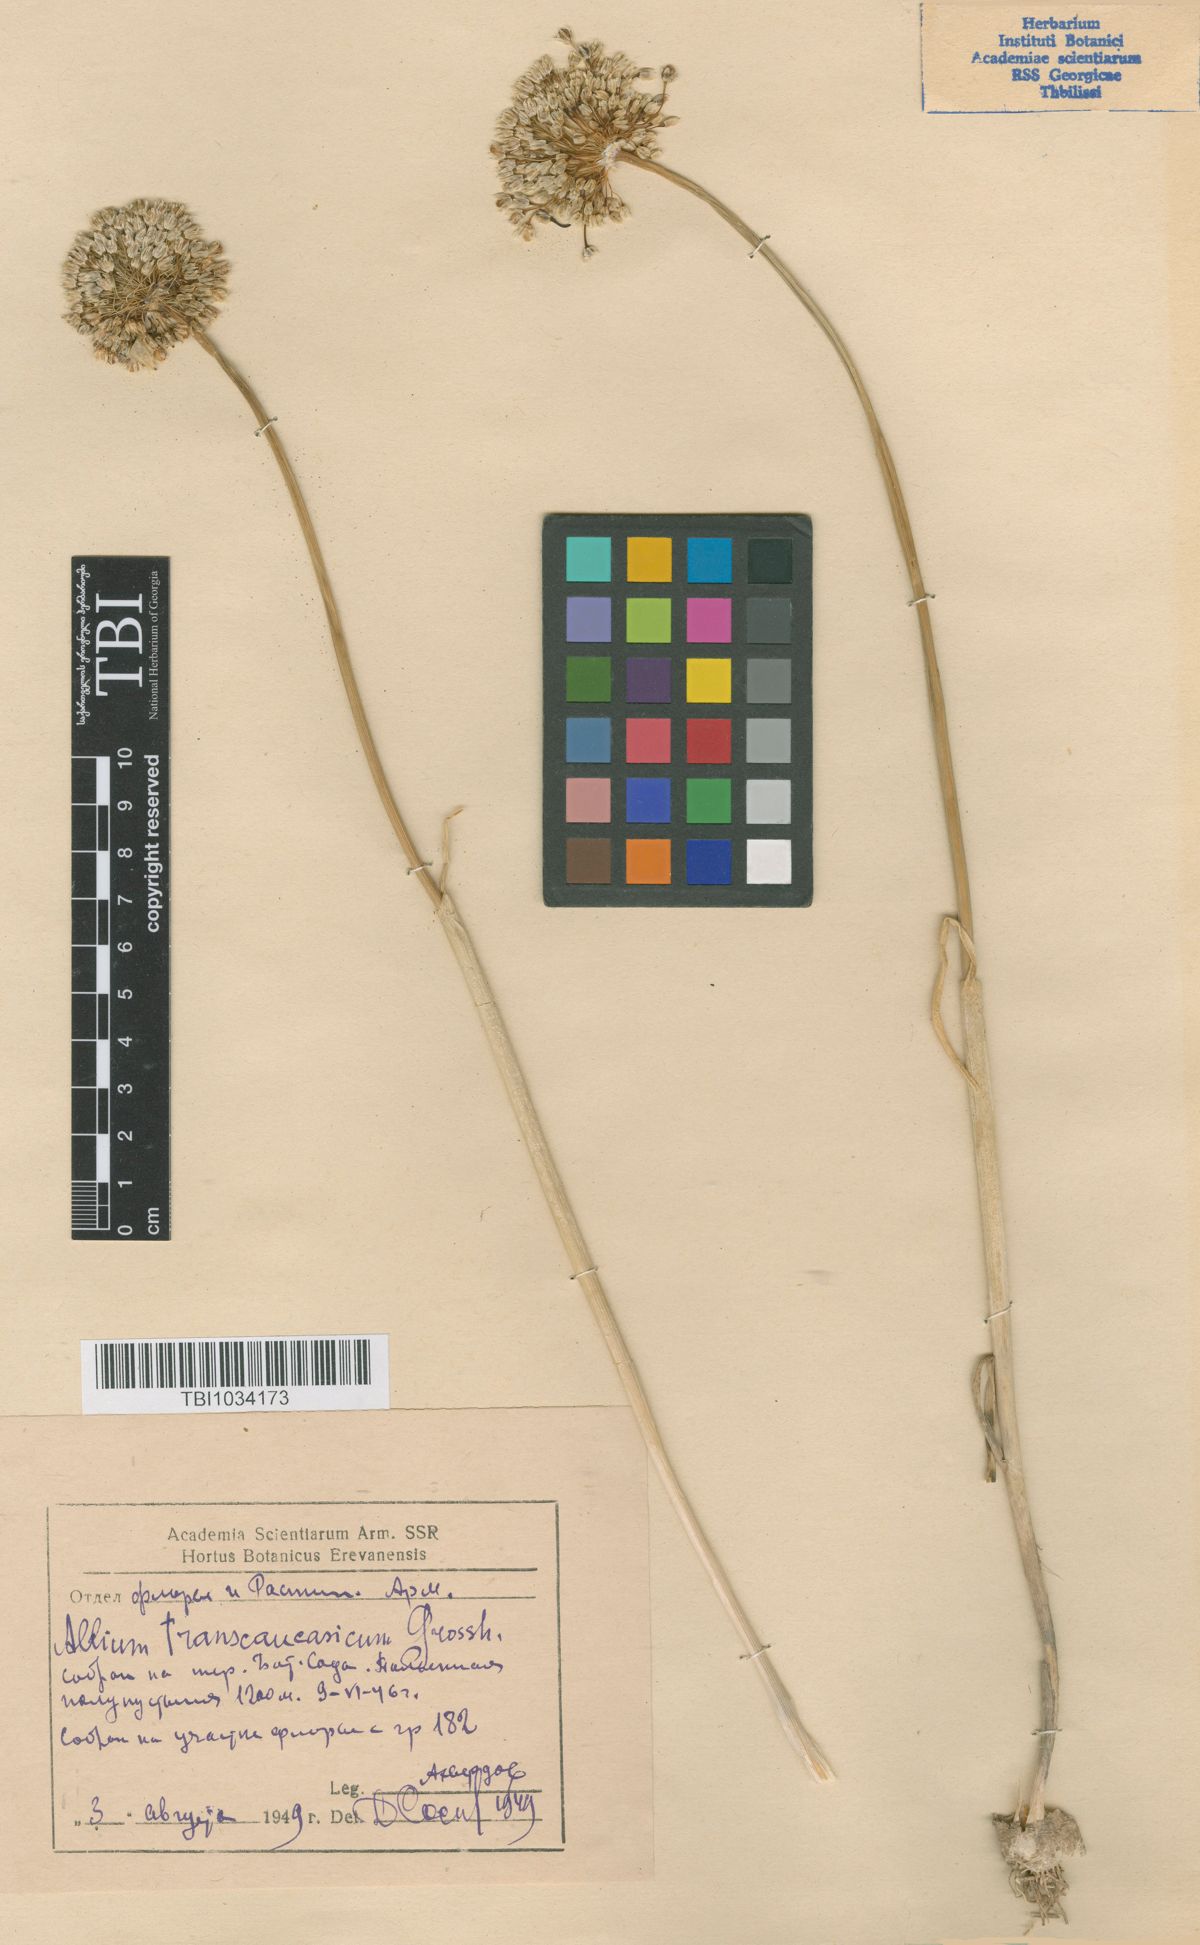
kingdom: Plantae
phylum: Tracheophyta
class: Liliopsida
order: Asparagales
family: Amaryllidaceae
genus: Allium
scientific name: Allium affine
